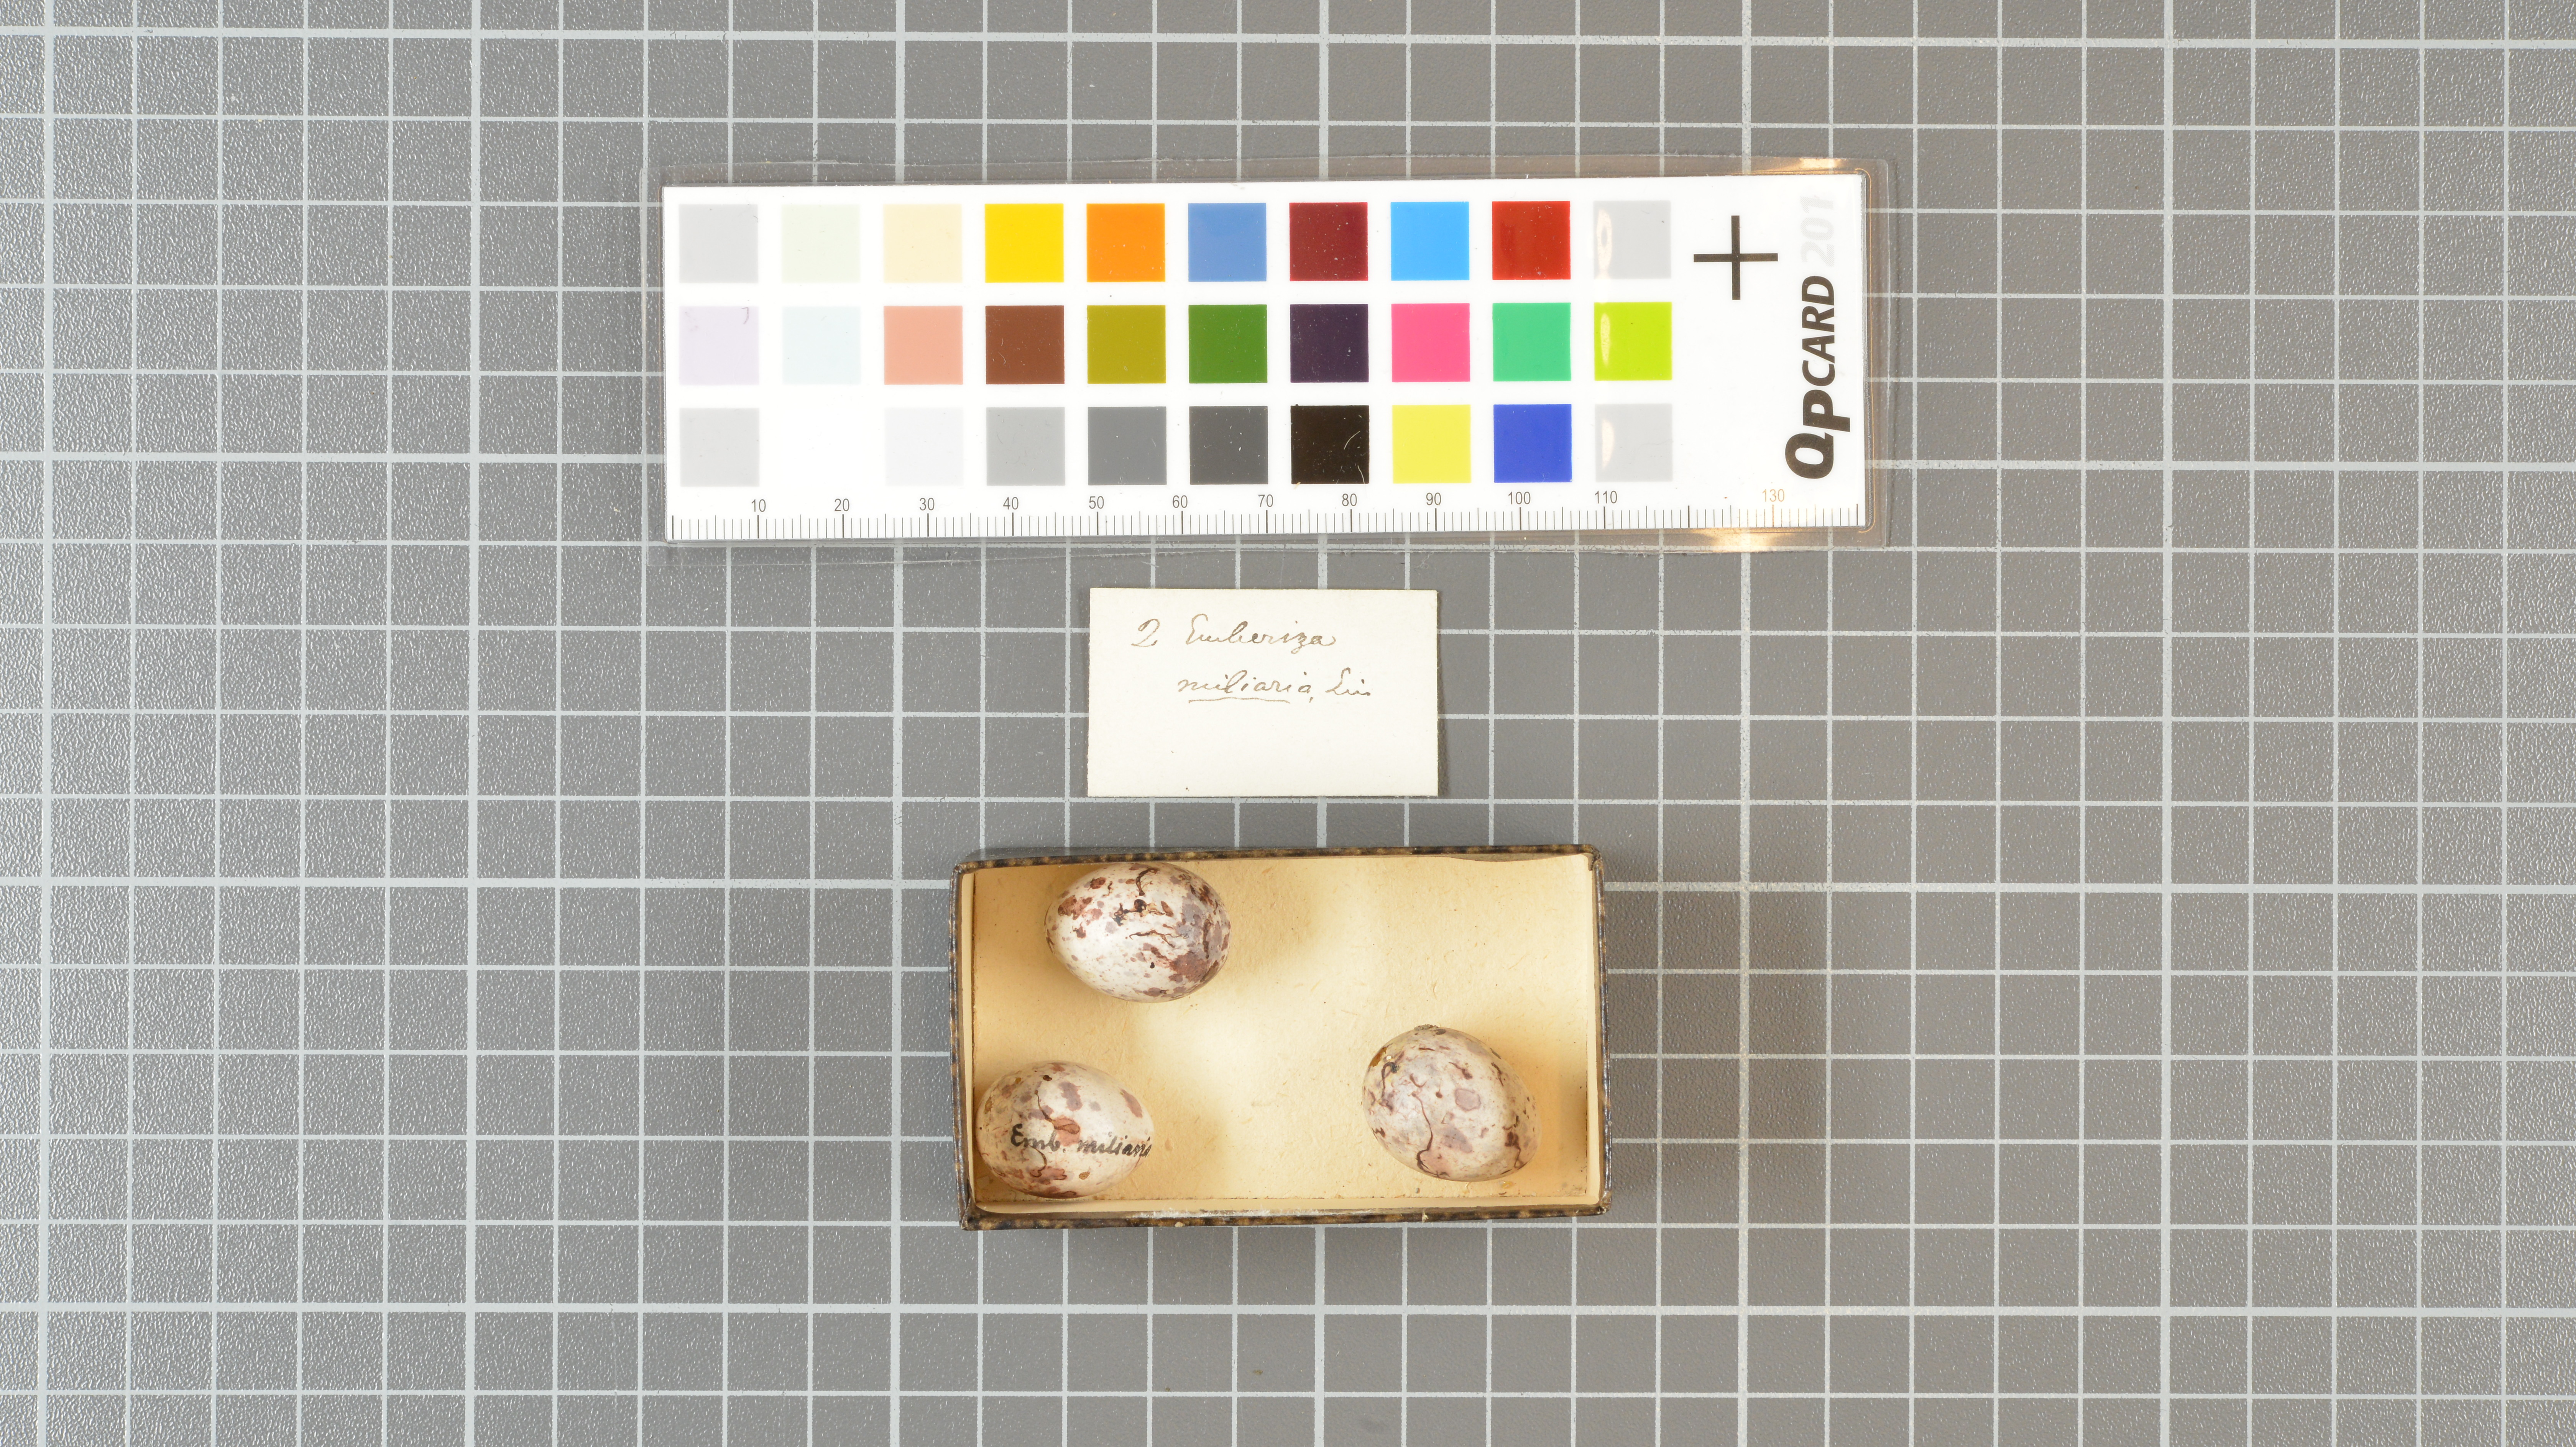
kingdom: Animalia
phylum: Chordata
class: Aves
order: Passeriformes
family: Emberizidae
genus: Emberiza
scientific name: Emberiza calandra
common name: Corn bunting
